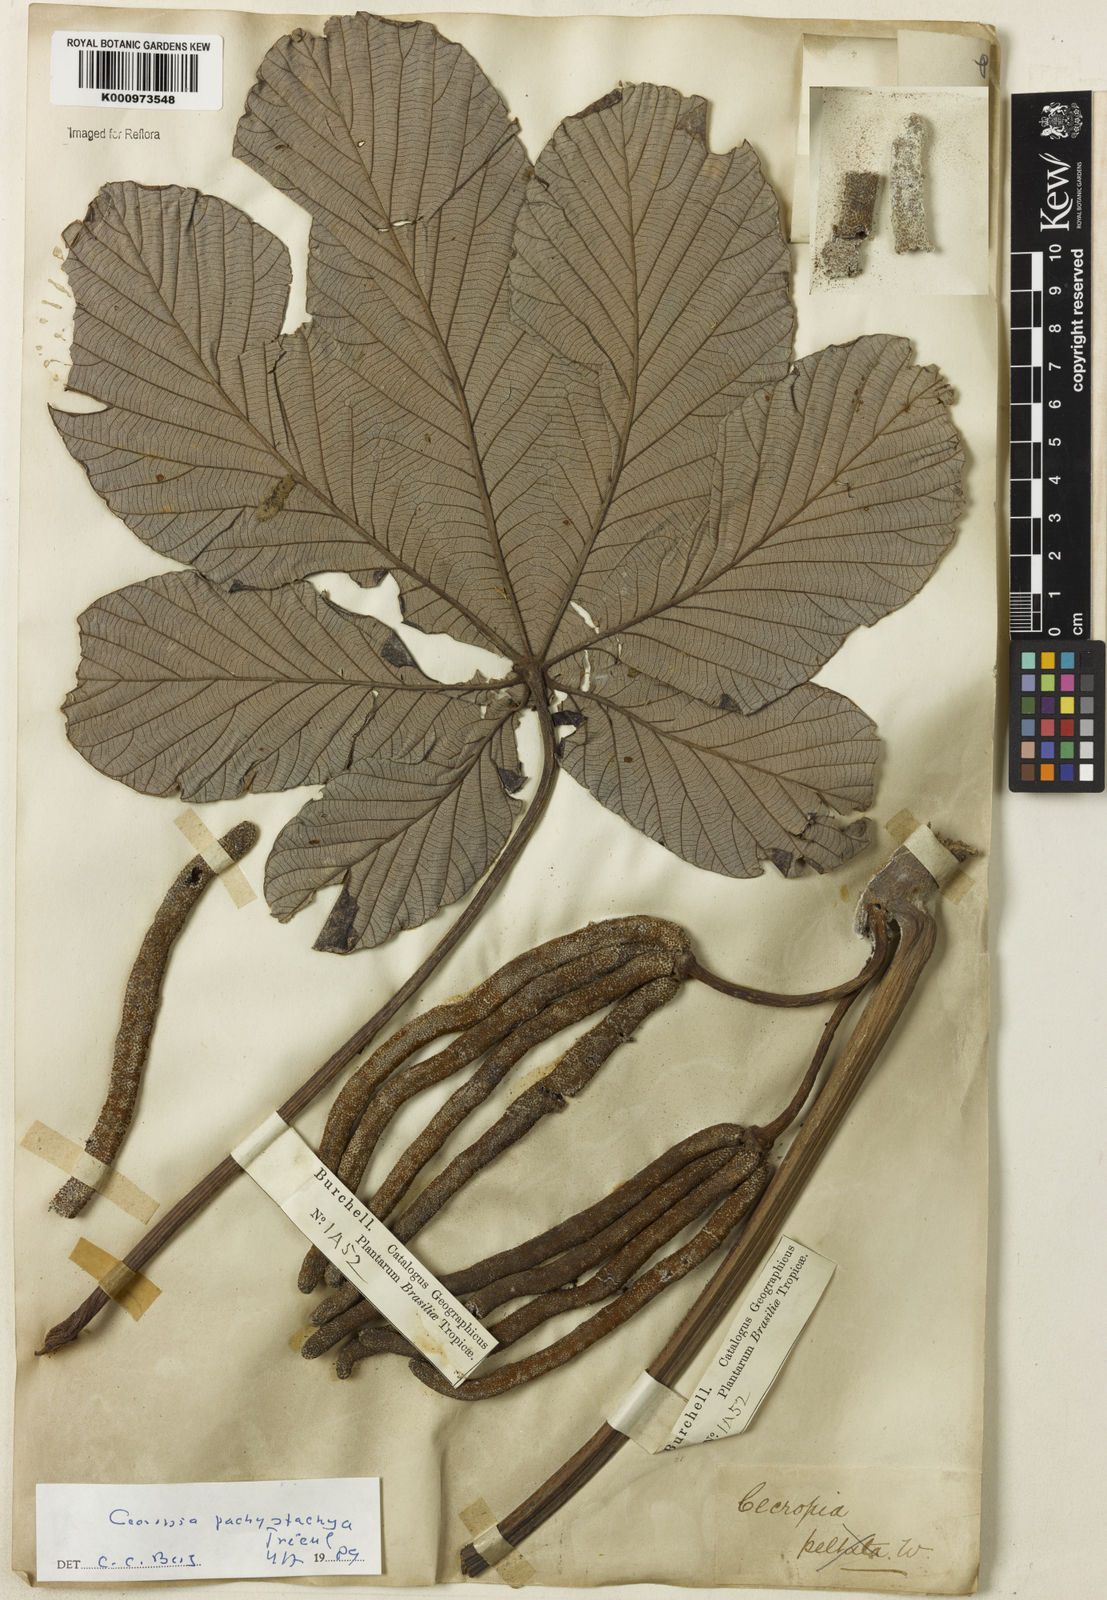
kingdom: Plantae
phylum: Tracheophyta
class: Magnoliopsida
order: Rosales
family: Urticaceae
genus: Cecropia
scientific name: Cecropia
